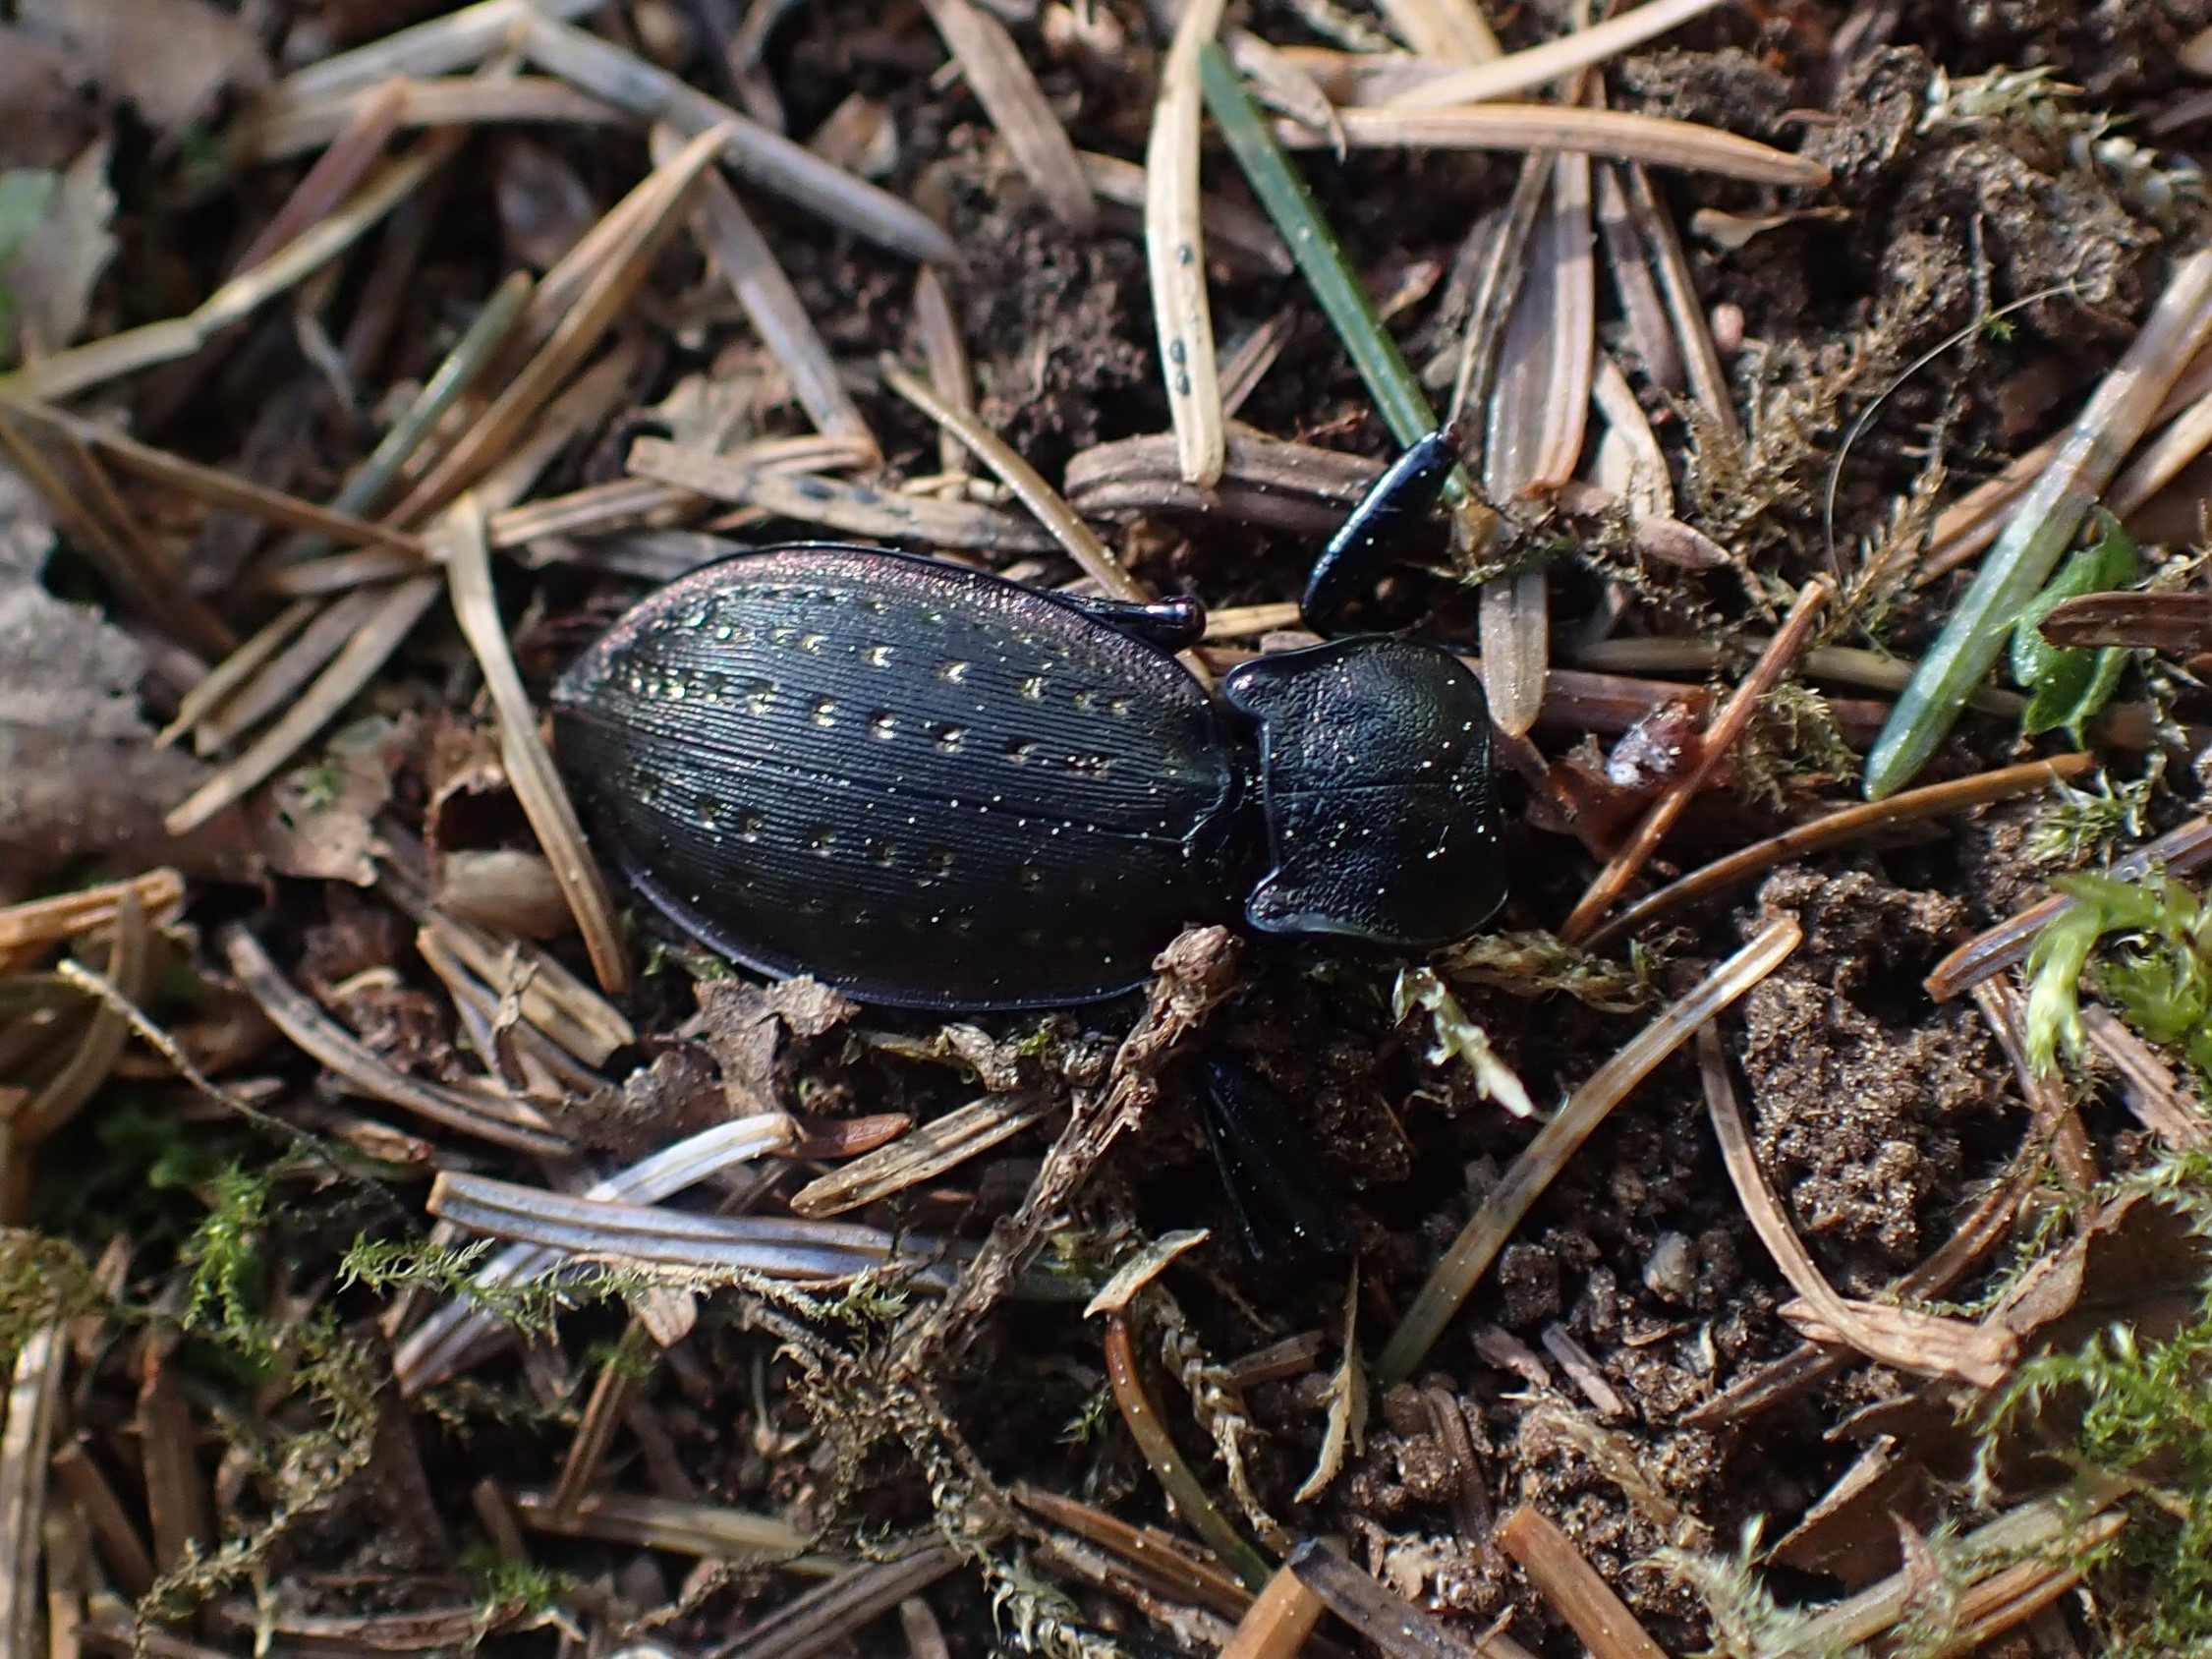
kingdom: Animalia
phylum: Arthropoda
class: Insecta
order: Coleoptera
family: Carabidae
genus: Carabus
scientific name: Carabus hortensis
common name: Guldpletløber
